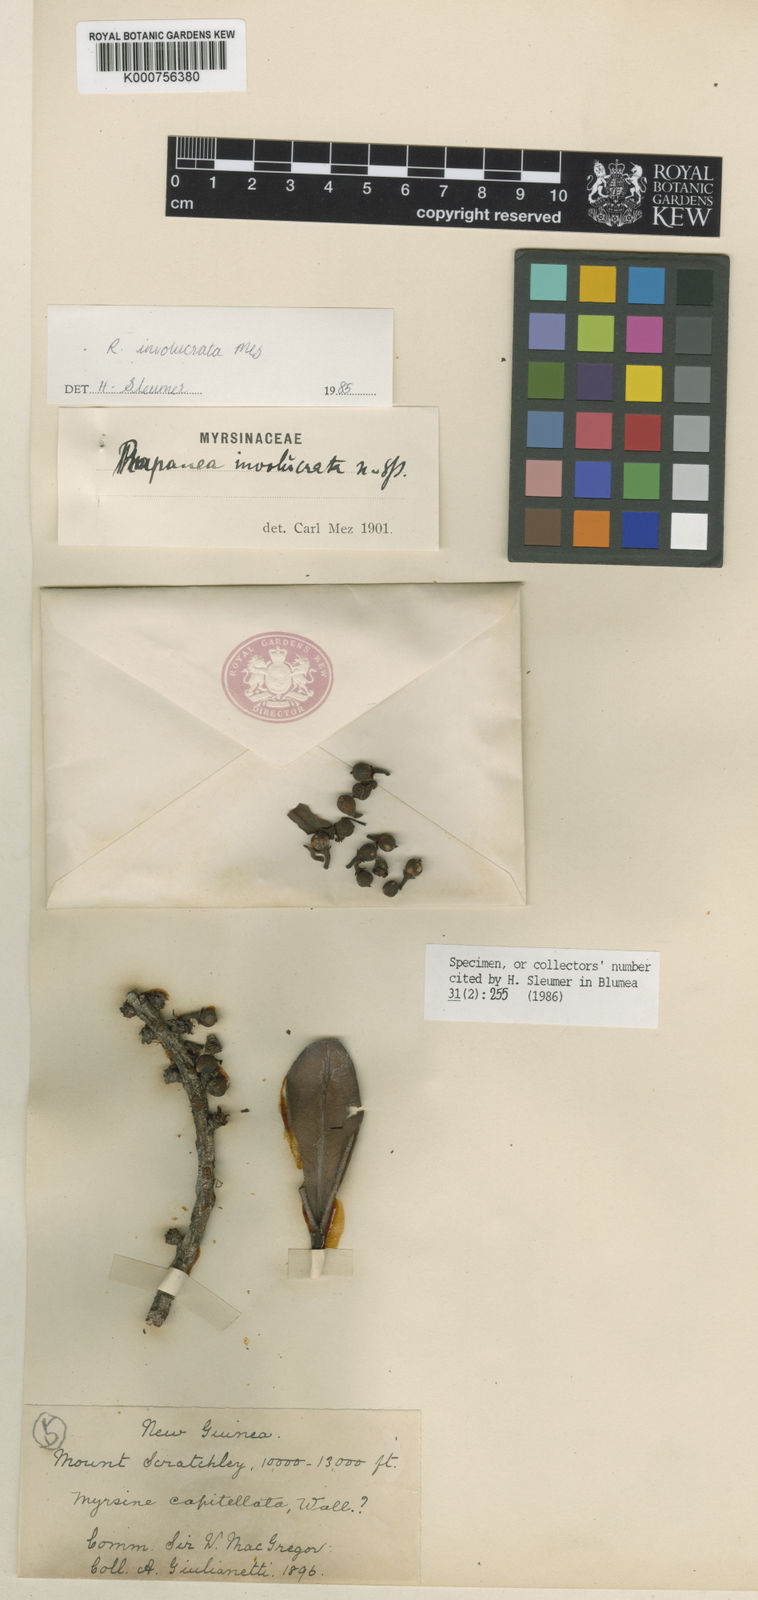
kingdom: Plantae
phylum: Tracheophyta
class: Magnoliopsida
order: Ericales
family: Primulaceae
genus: Myrsine
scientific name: Myrsine involucrata
